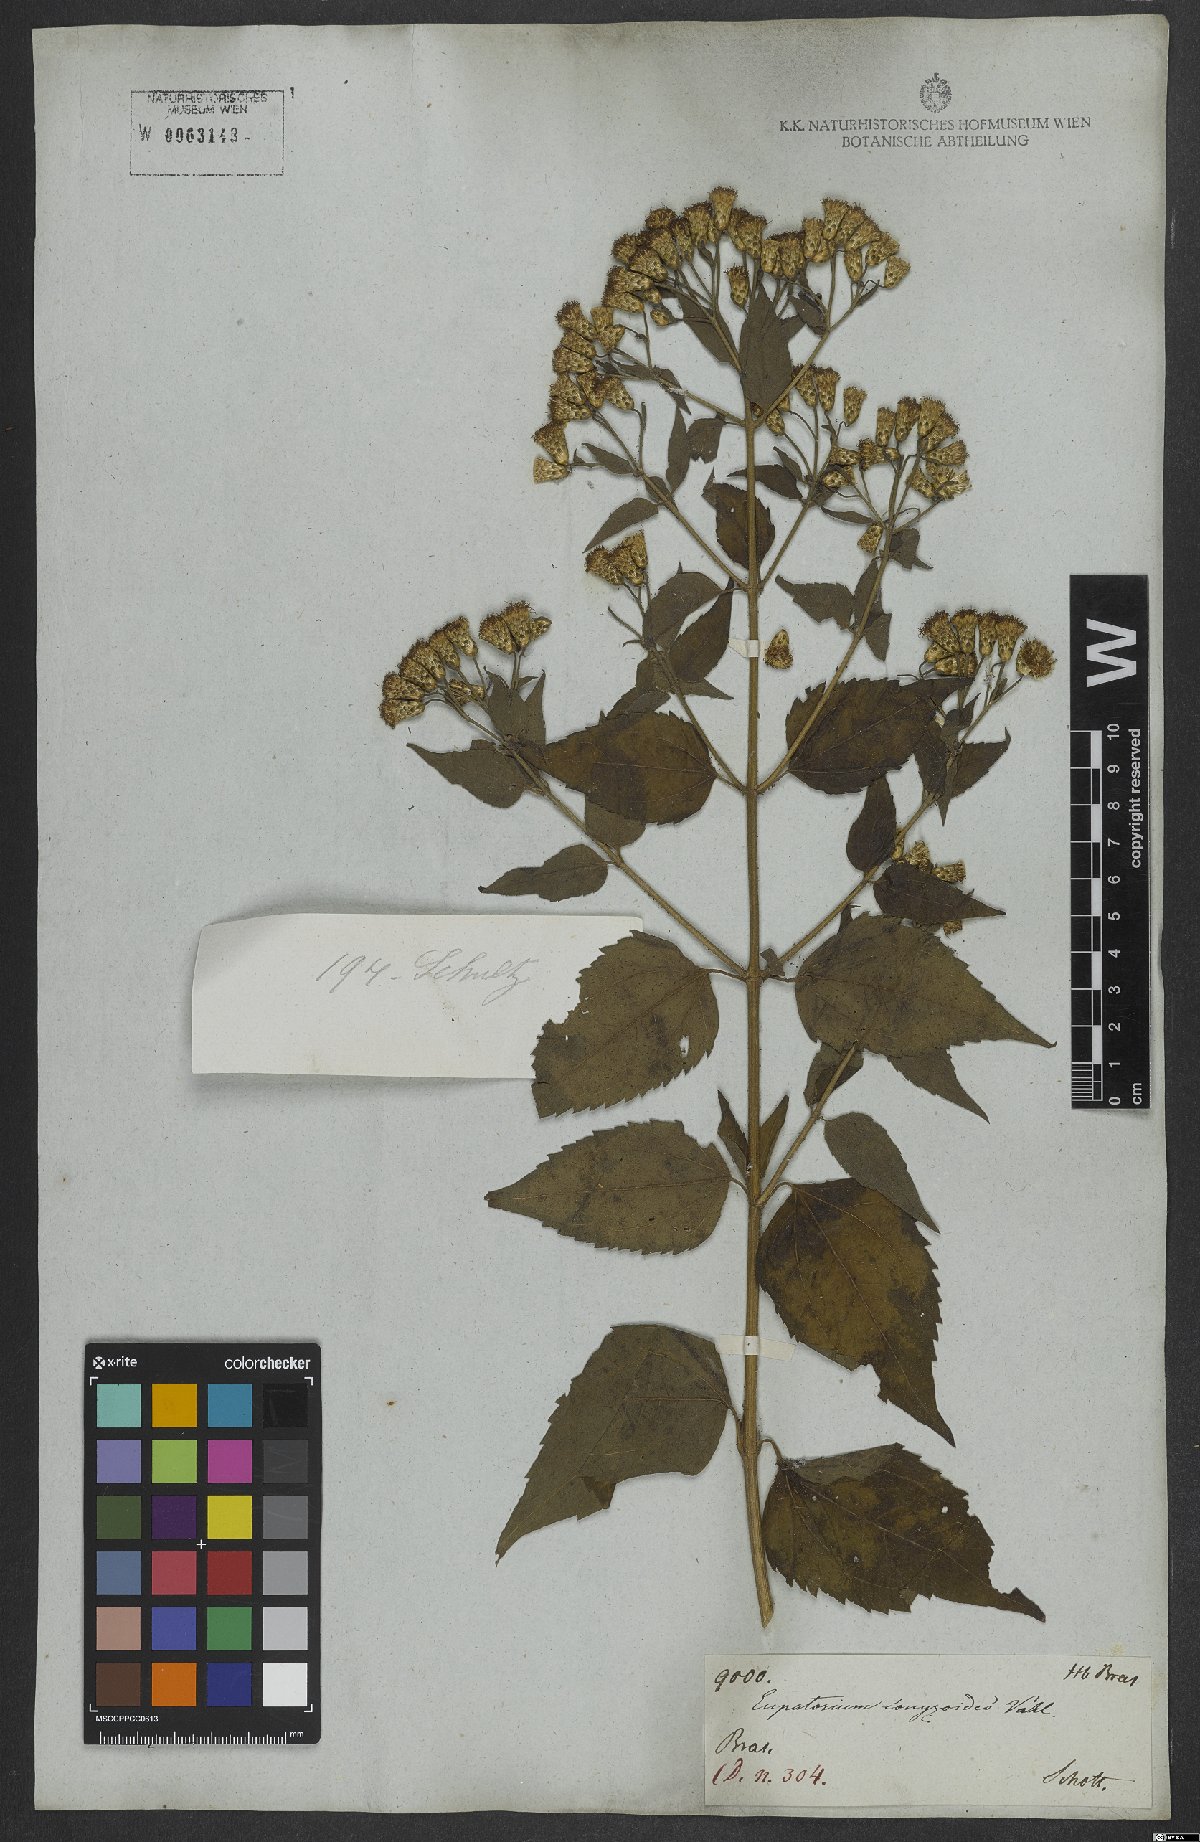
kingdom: Plantae
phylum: Tracheophyta
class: Magnoliopsida
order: Asterales
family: Asteraceae
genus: Chromolaena
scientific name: Chromolaena odorata
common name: Siamweed
